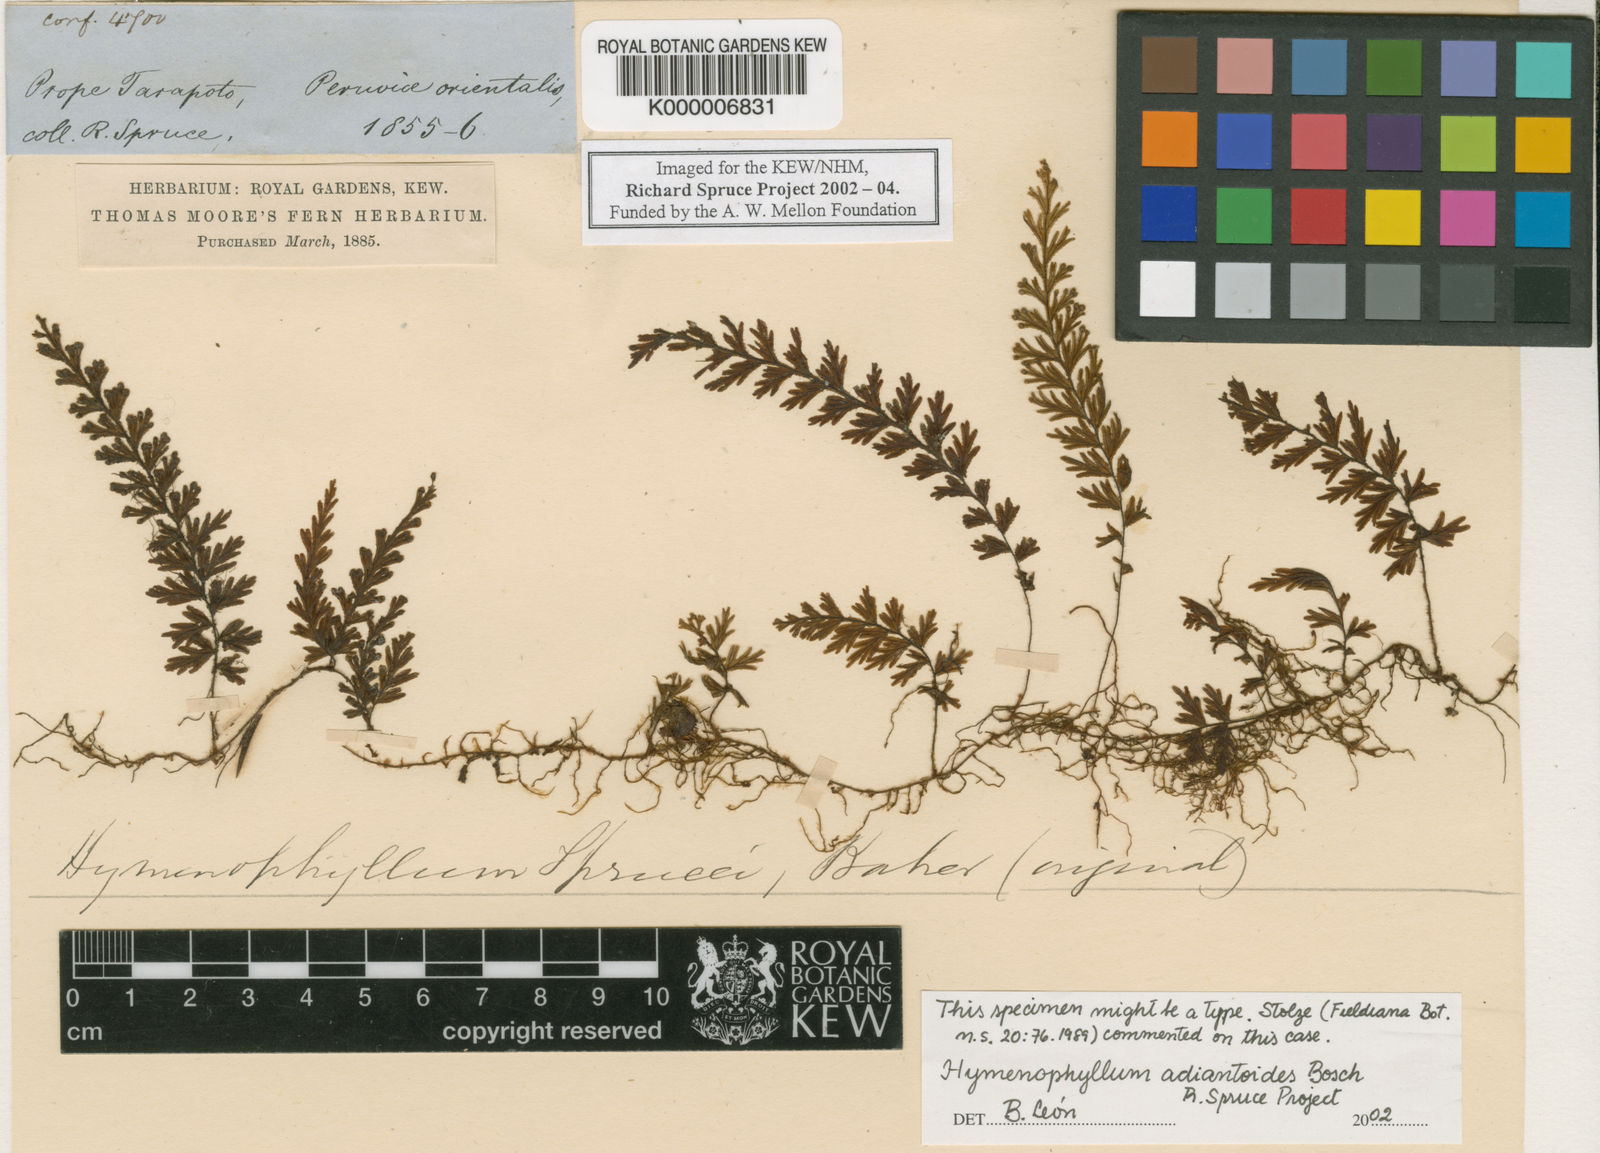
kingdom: Plantae
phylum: Tracheophyta
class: Polypodiopsida
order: Hymenophyllales
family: Hymenophyllaceae
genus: Hymenophyllum
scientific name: Hymenophyllum adiantoides
